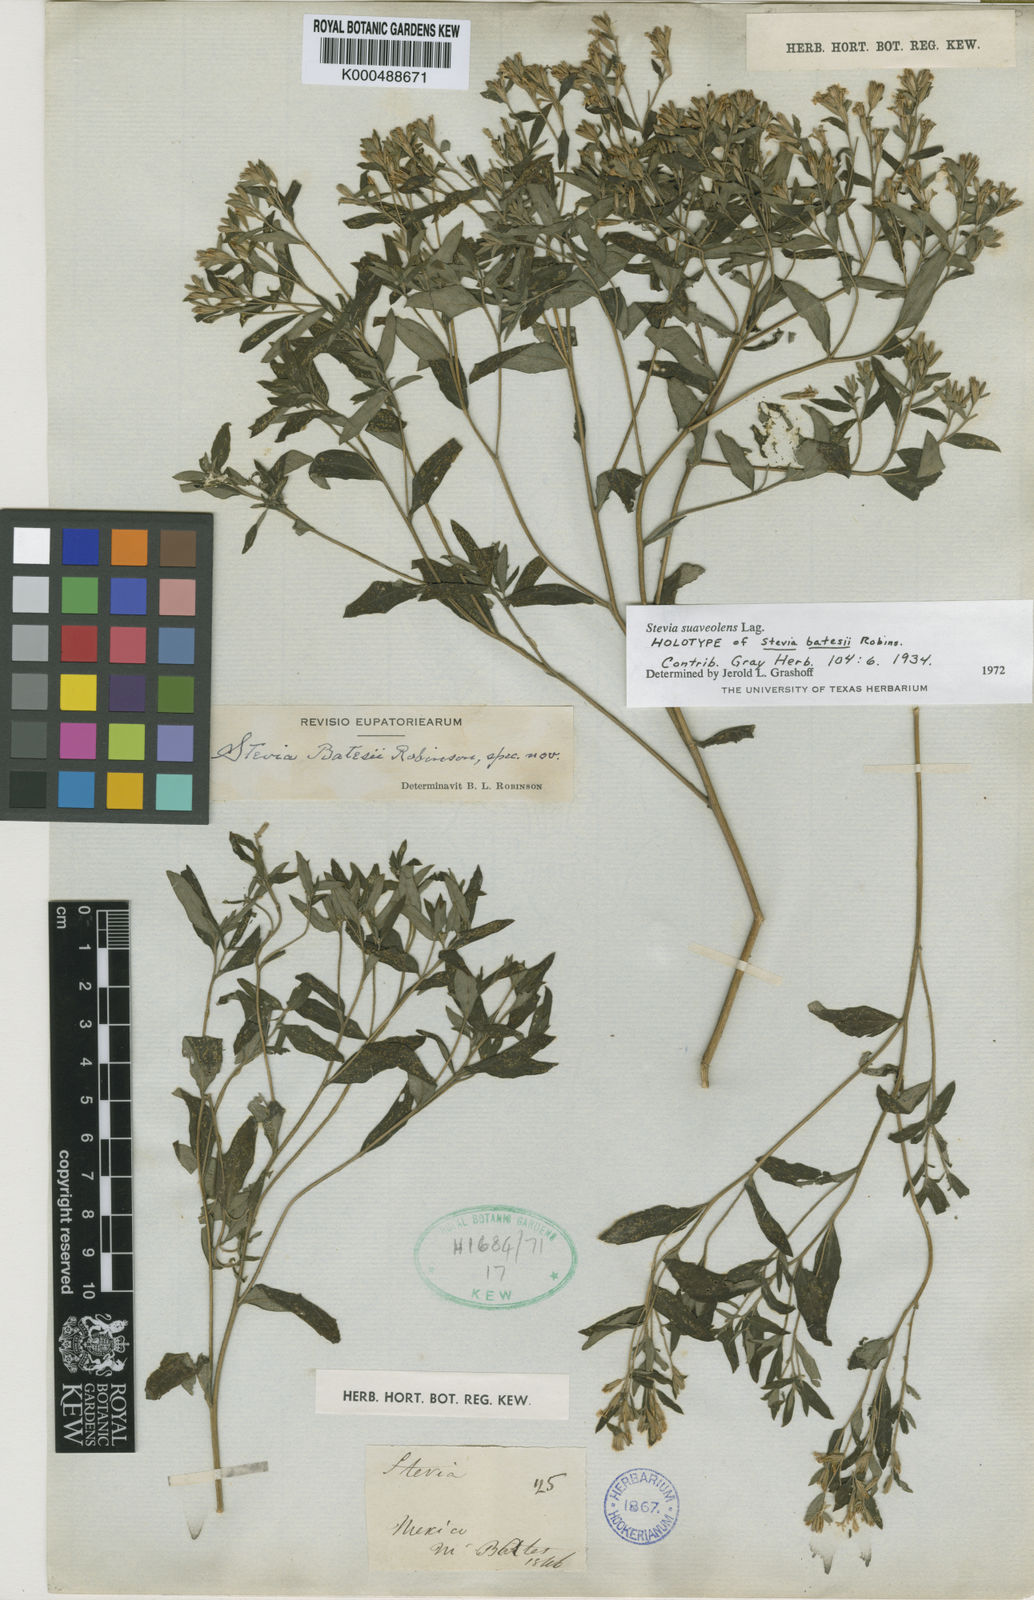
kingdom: Plantae
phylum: Tracheophyta
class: Magnoliopsida
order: Asterales
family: Asteraceae
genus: Stevia
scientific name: Stevia tomentosa
